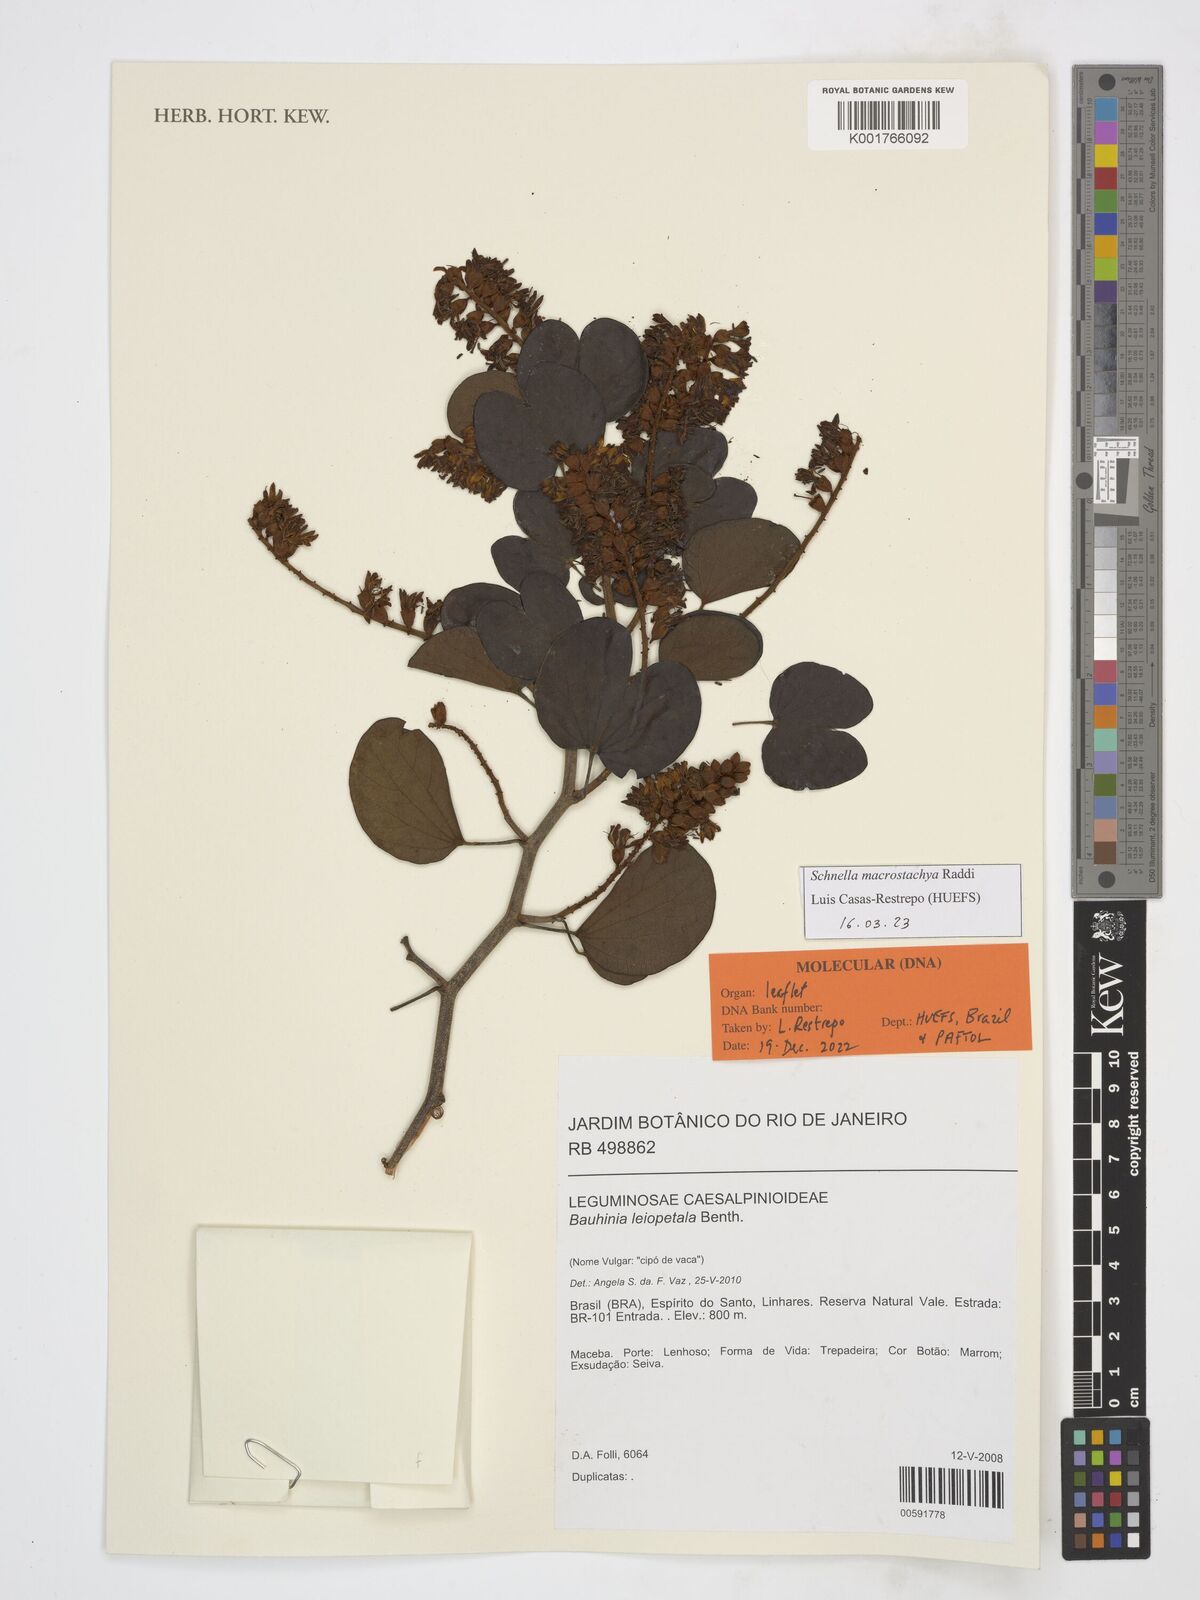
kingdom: Plantae
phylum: Tracheophyta
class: Magnoliopsida
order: Fabales
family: Fabaceae
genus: Schnella
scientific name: Schnella macrostachya
